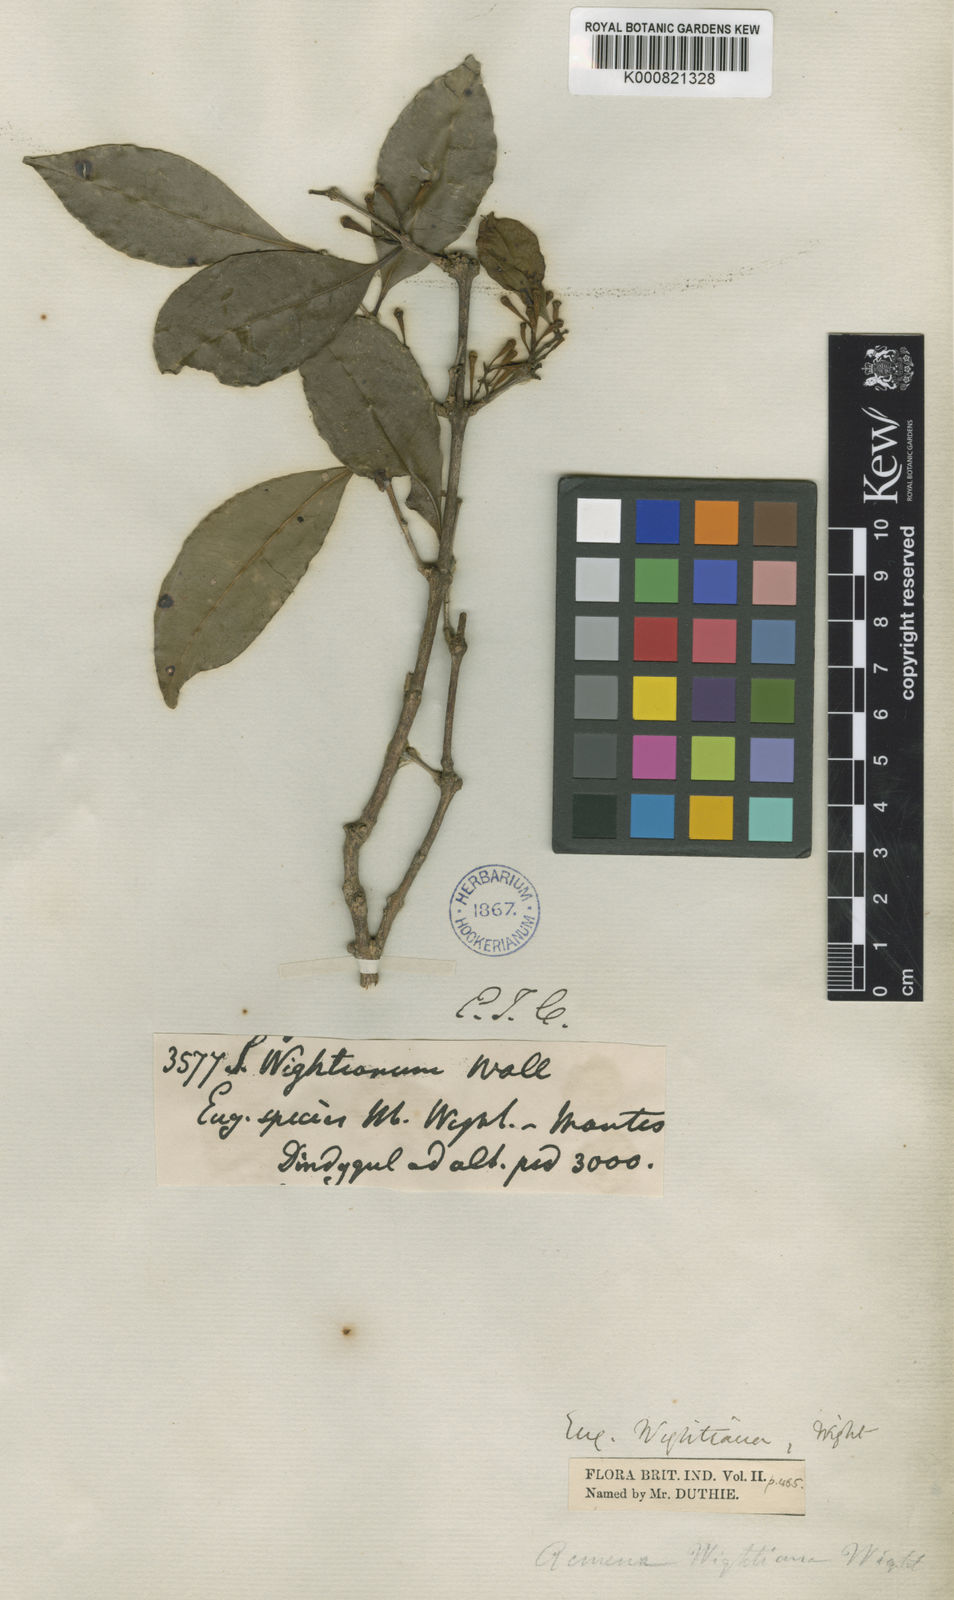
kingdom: Plantae
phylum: Tracheophyta
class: Magnoliopsida
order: Myrtales
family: Myrtaceae
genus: Syzygium
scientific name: Syzygium
